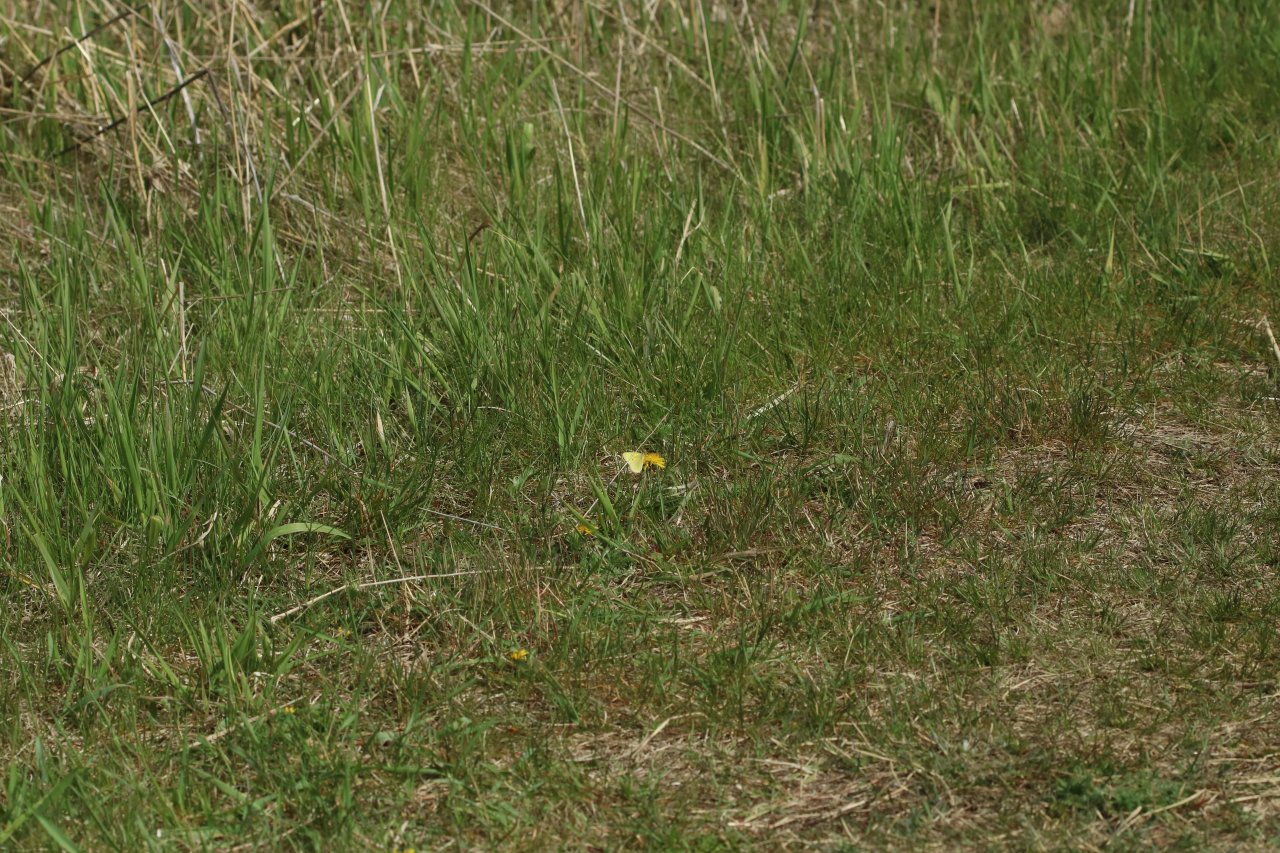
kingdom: Animalia
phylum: Arthropoda
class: Insecta
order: Lepidoptera
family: Pieridae
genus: Colias
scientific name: Colias philodice
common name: Clouded Sulphur
